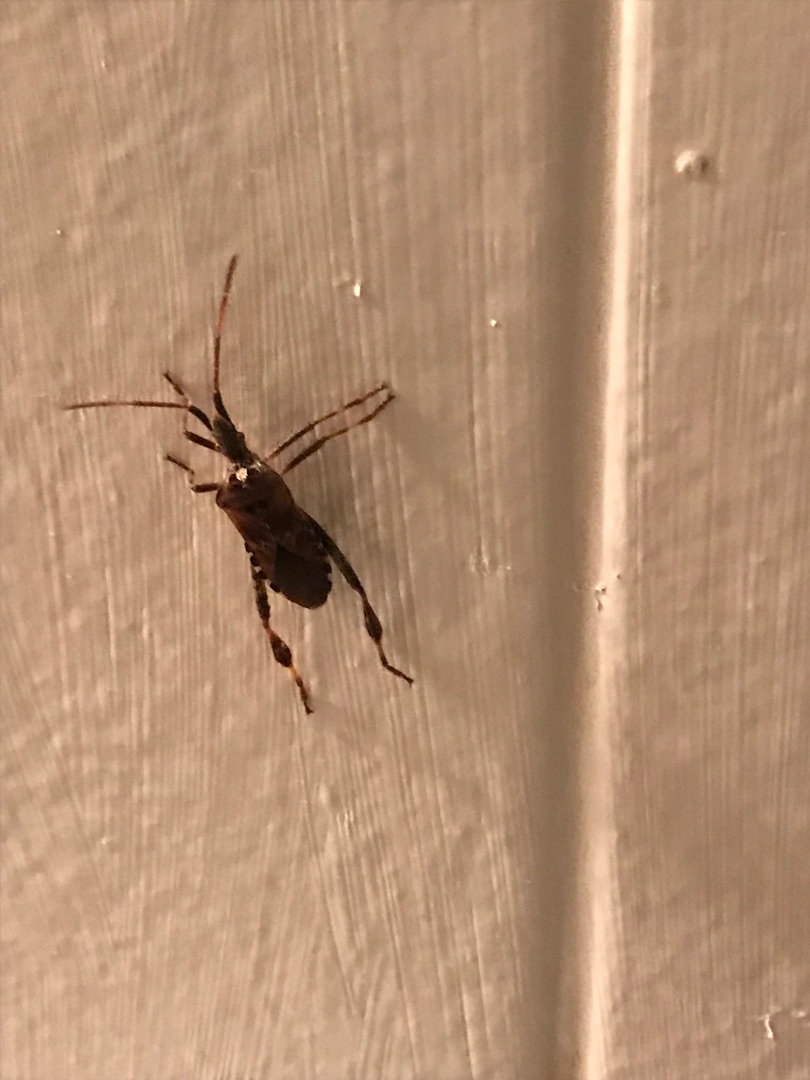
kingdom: Animalia
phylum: Arthropoda
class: Insecta
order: Hemiptera
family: Coreidae
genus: Leptoglossus
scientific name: Leptoglossus occidentalis
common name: Amerikansk fyrretæge
